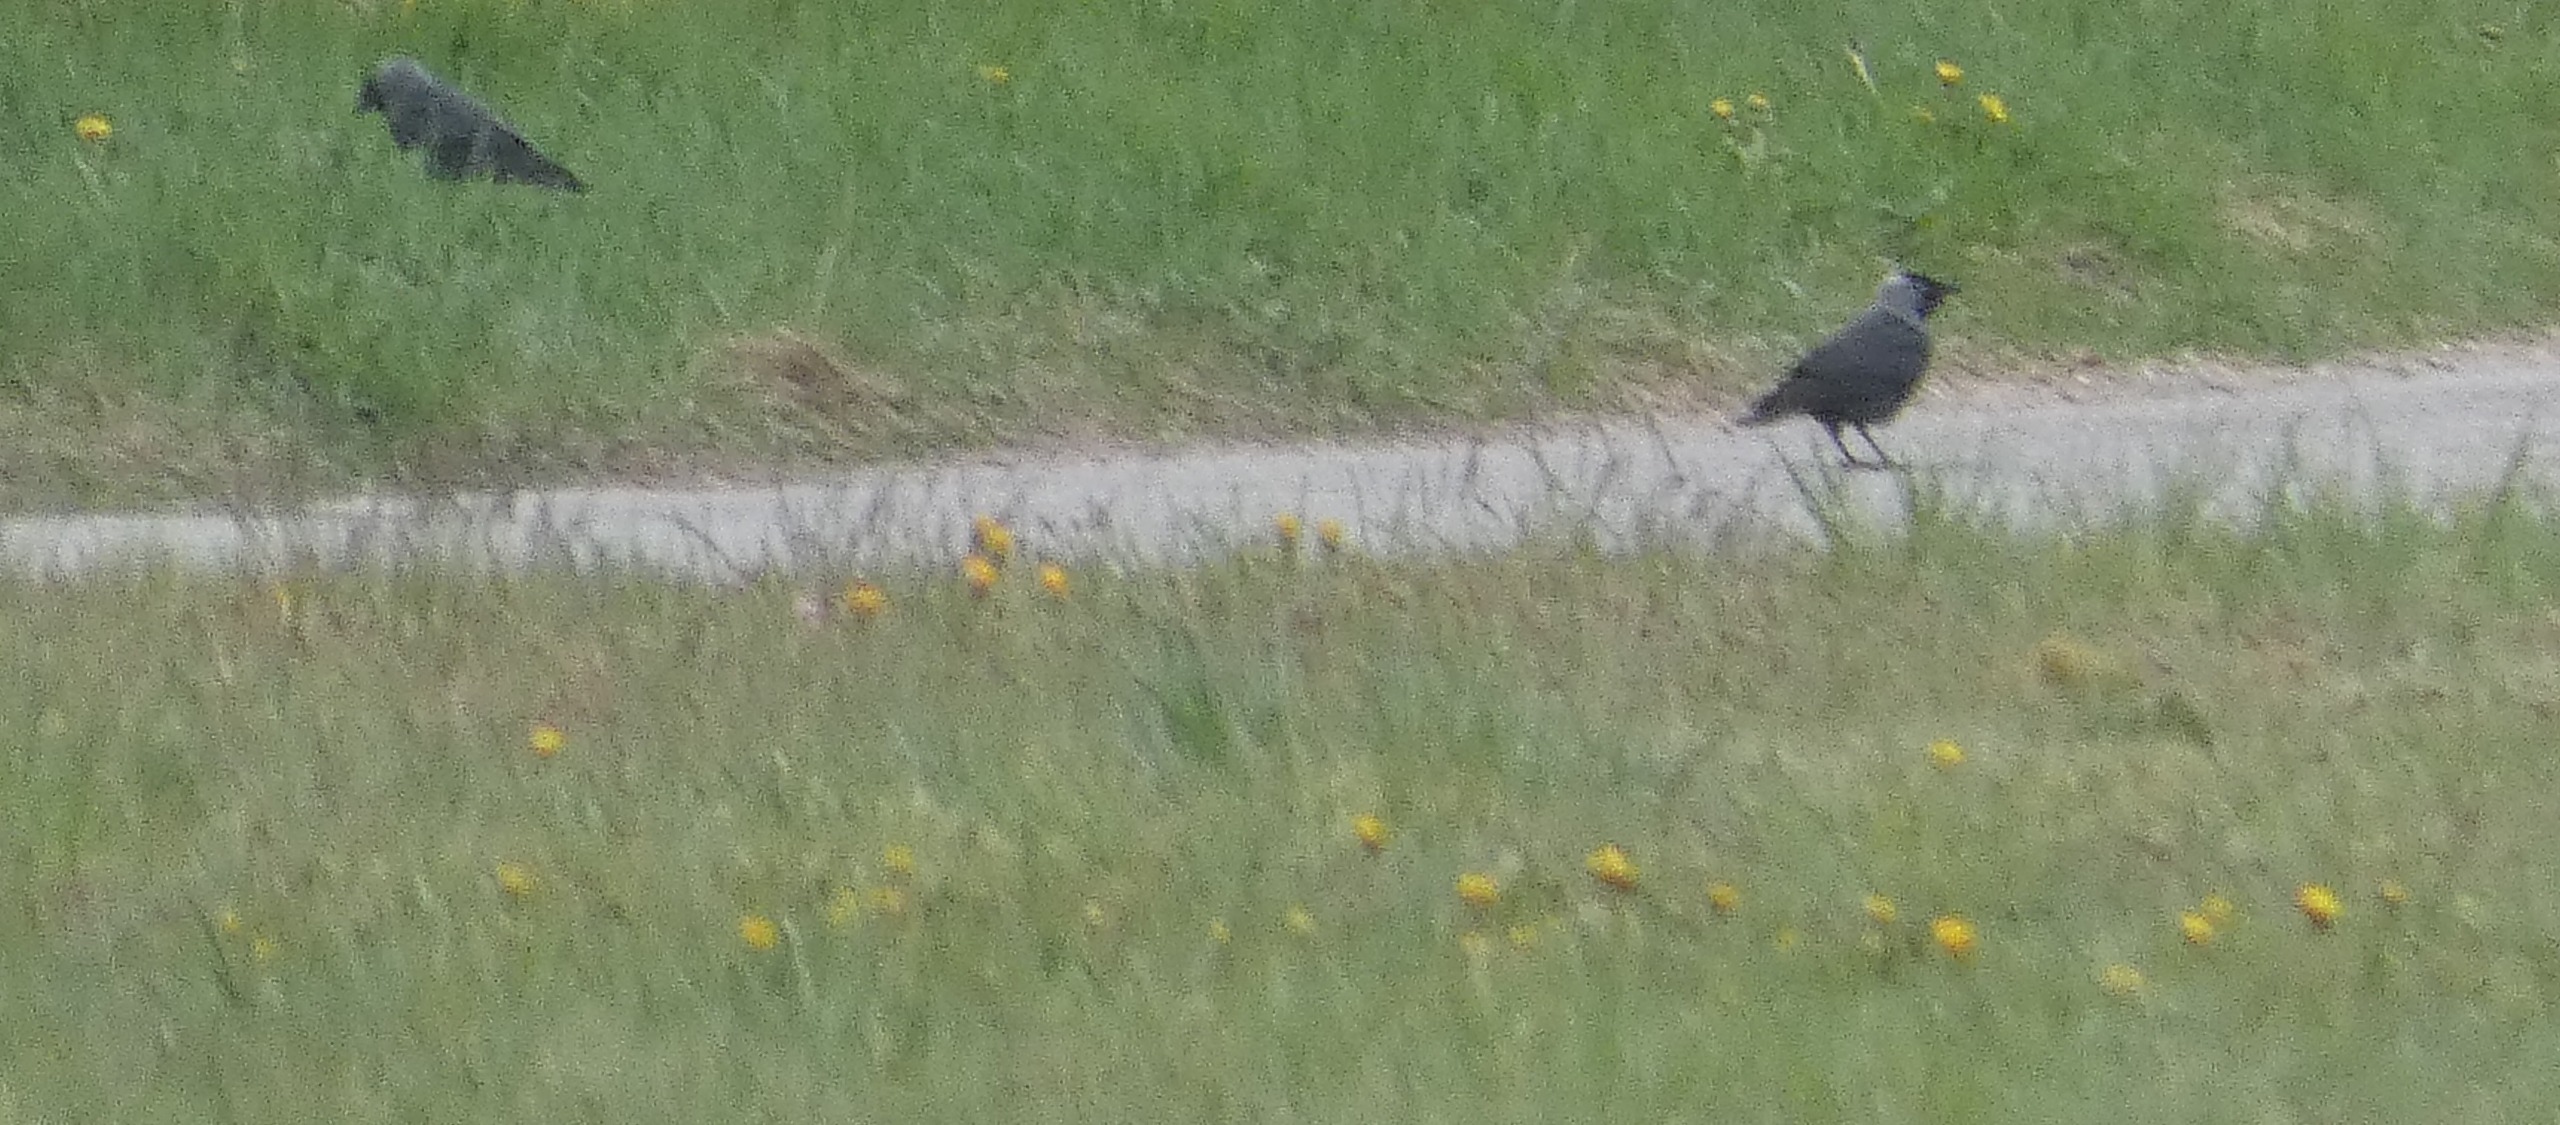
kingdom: Animalia
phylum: Chordata
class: Aves
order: Passeriformes
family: Corvidae
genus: Coloeus
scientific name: Coloeus monedula
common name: Allike
